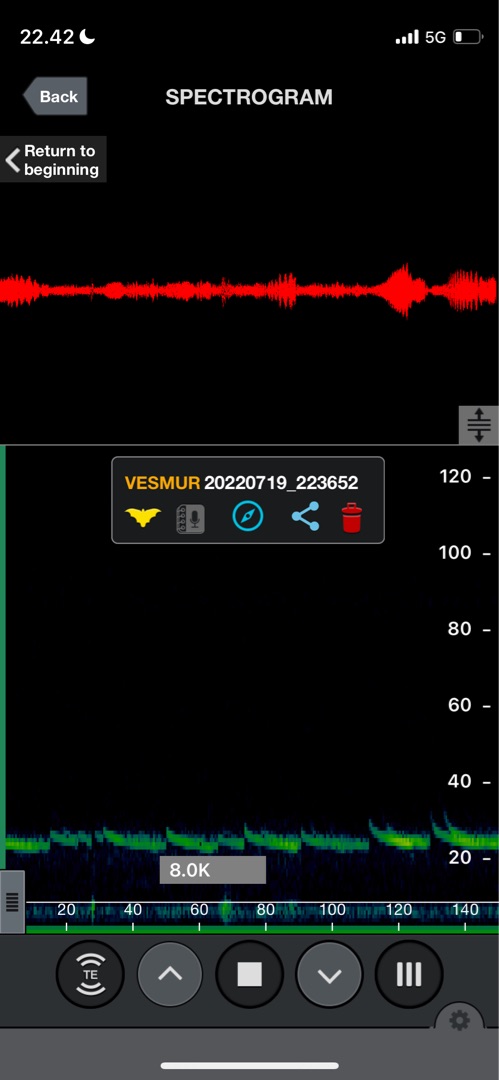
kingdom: Animalia
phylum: Chordata
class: Mammalia
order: Chiroptera
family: Vespertilionidae
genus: Vespertilio
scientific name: Vespertilio murinus
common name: Skimmelflagermus
